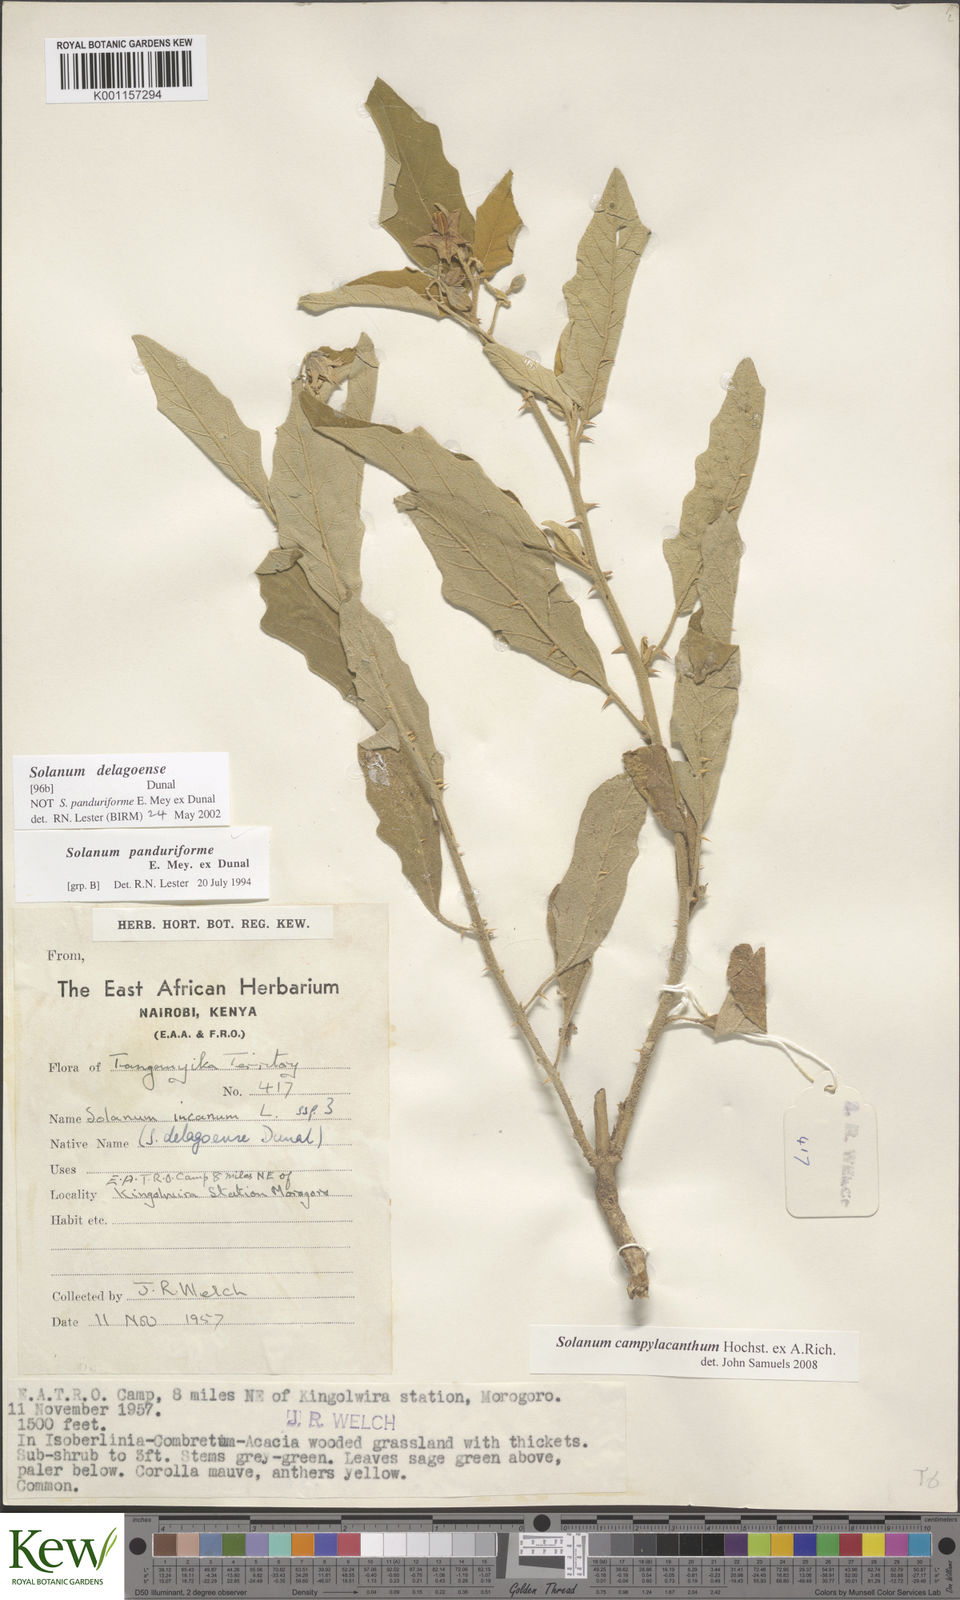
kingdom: Plantae
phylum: Tracheophyta
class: Magnoliopsida
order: Solanales
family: Solanaceae
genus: Solanum
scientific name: Solanum campylacanthum
